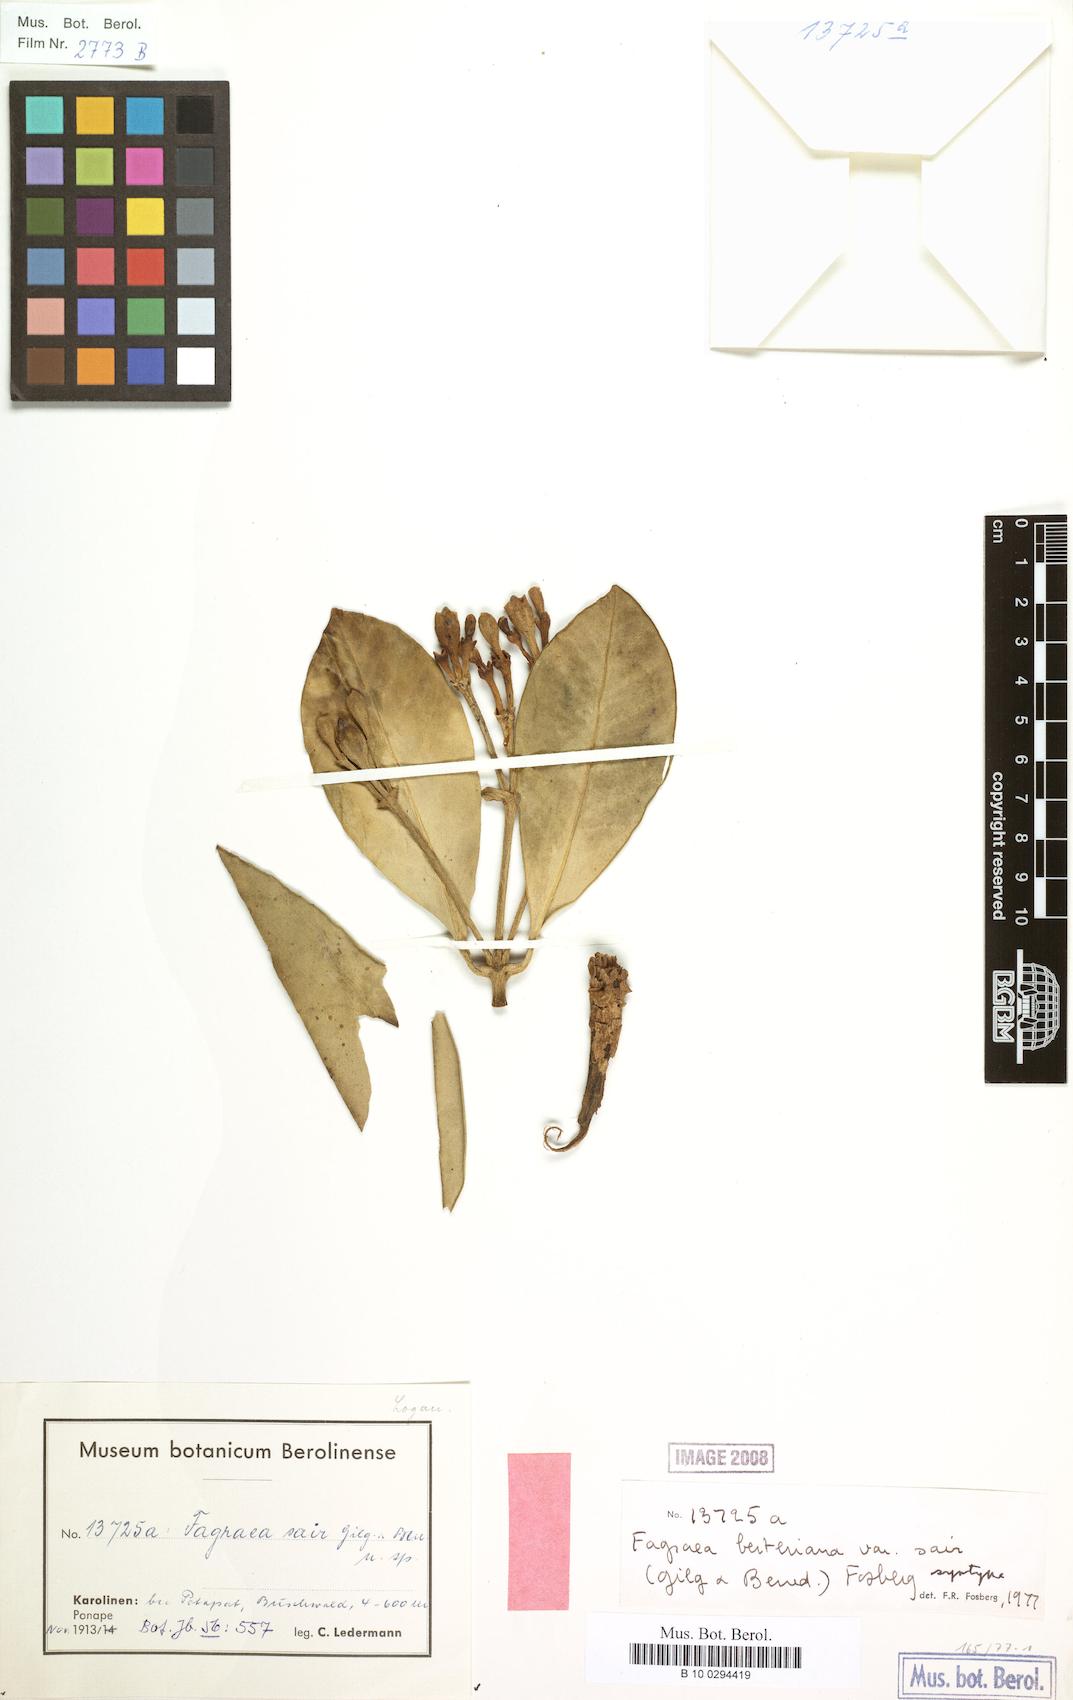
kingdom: Plantae
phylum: Tracheophyta
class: Magnoliopsida
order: Gentianales
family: Gentianaceae
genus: Fagraea
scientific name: Fagraea berteroana
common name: Cape jitta
